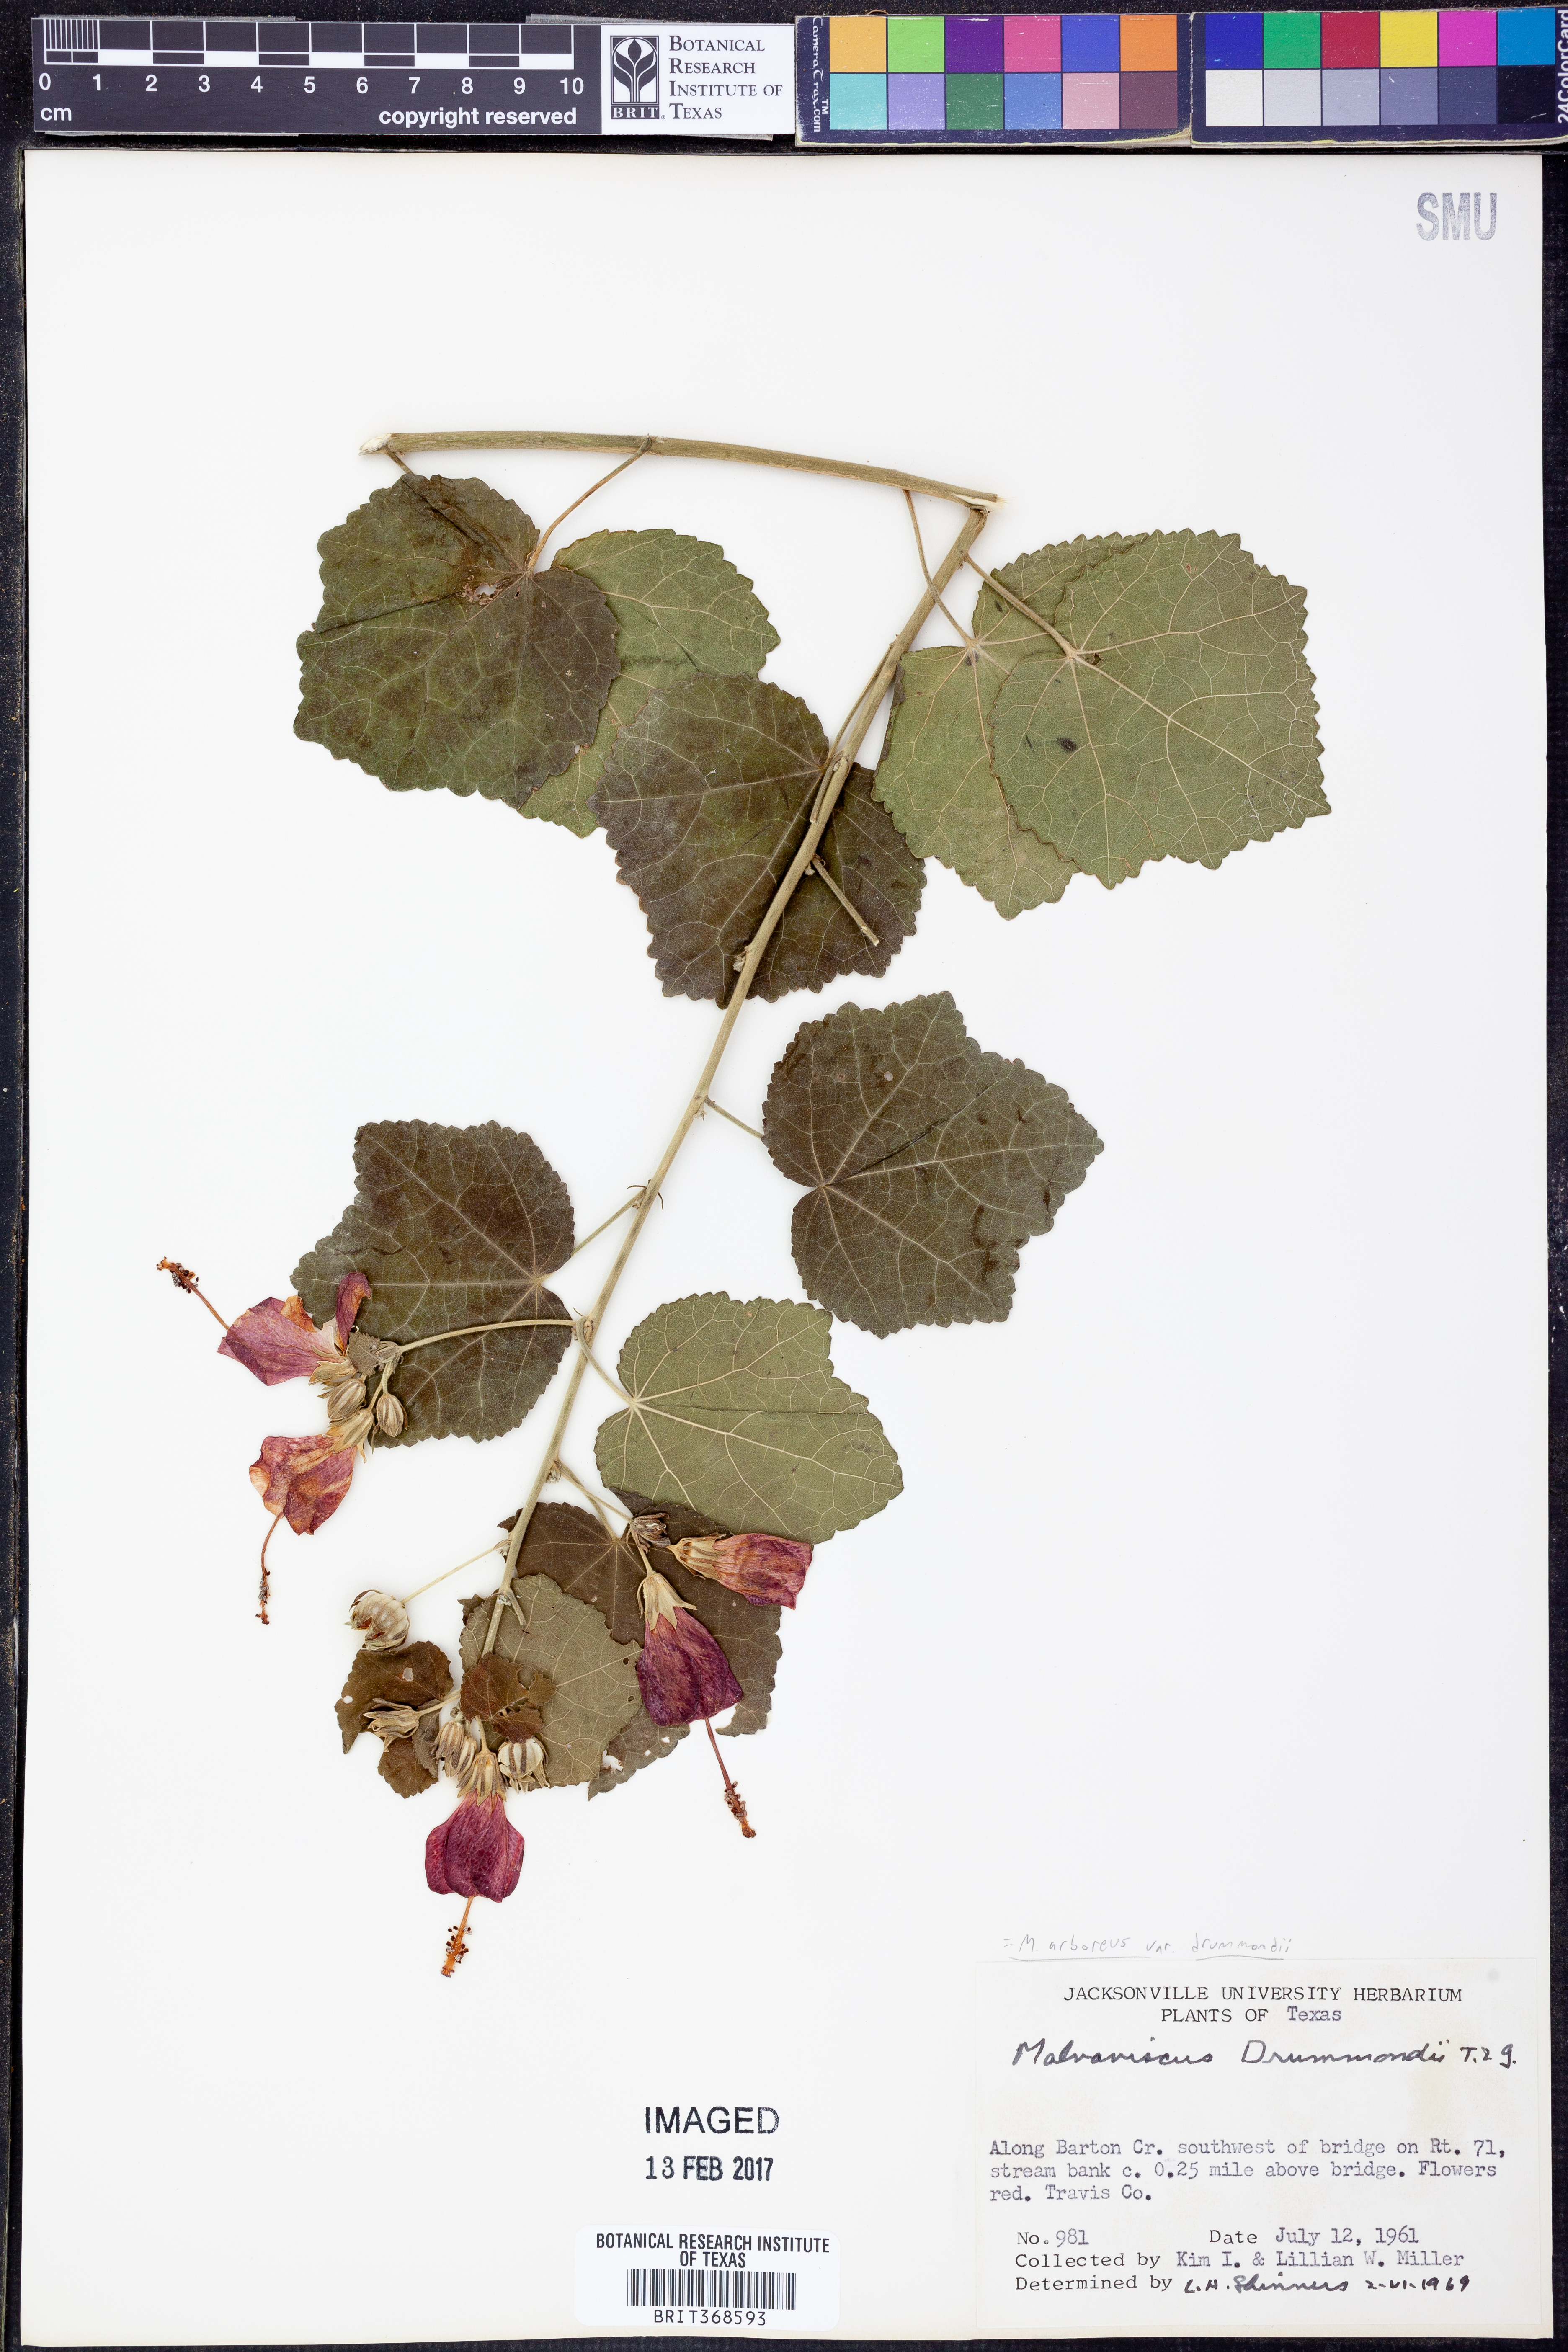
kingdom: Plantae
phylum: Tracheophyta
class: Magnoliopsida
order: Malvales
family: Malvaceae
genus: Malvaviscus
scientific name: Malvaviscus arboreus
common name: Wax mallow
